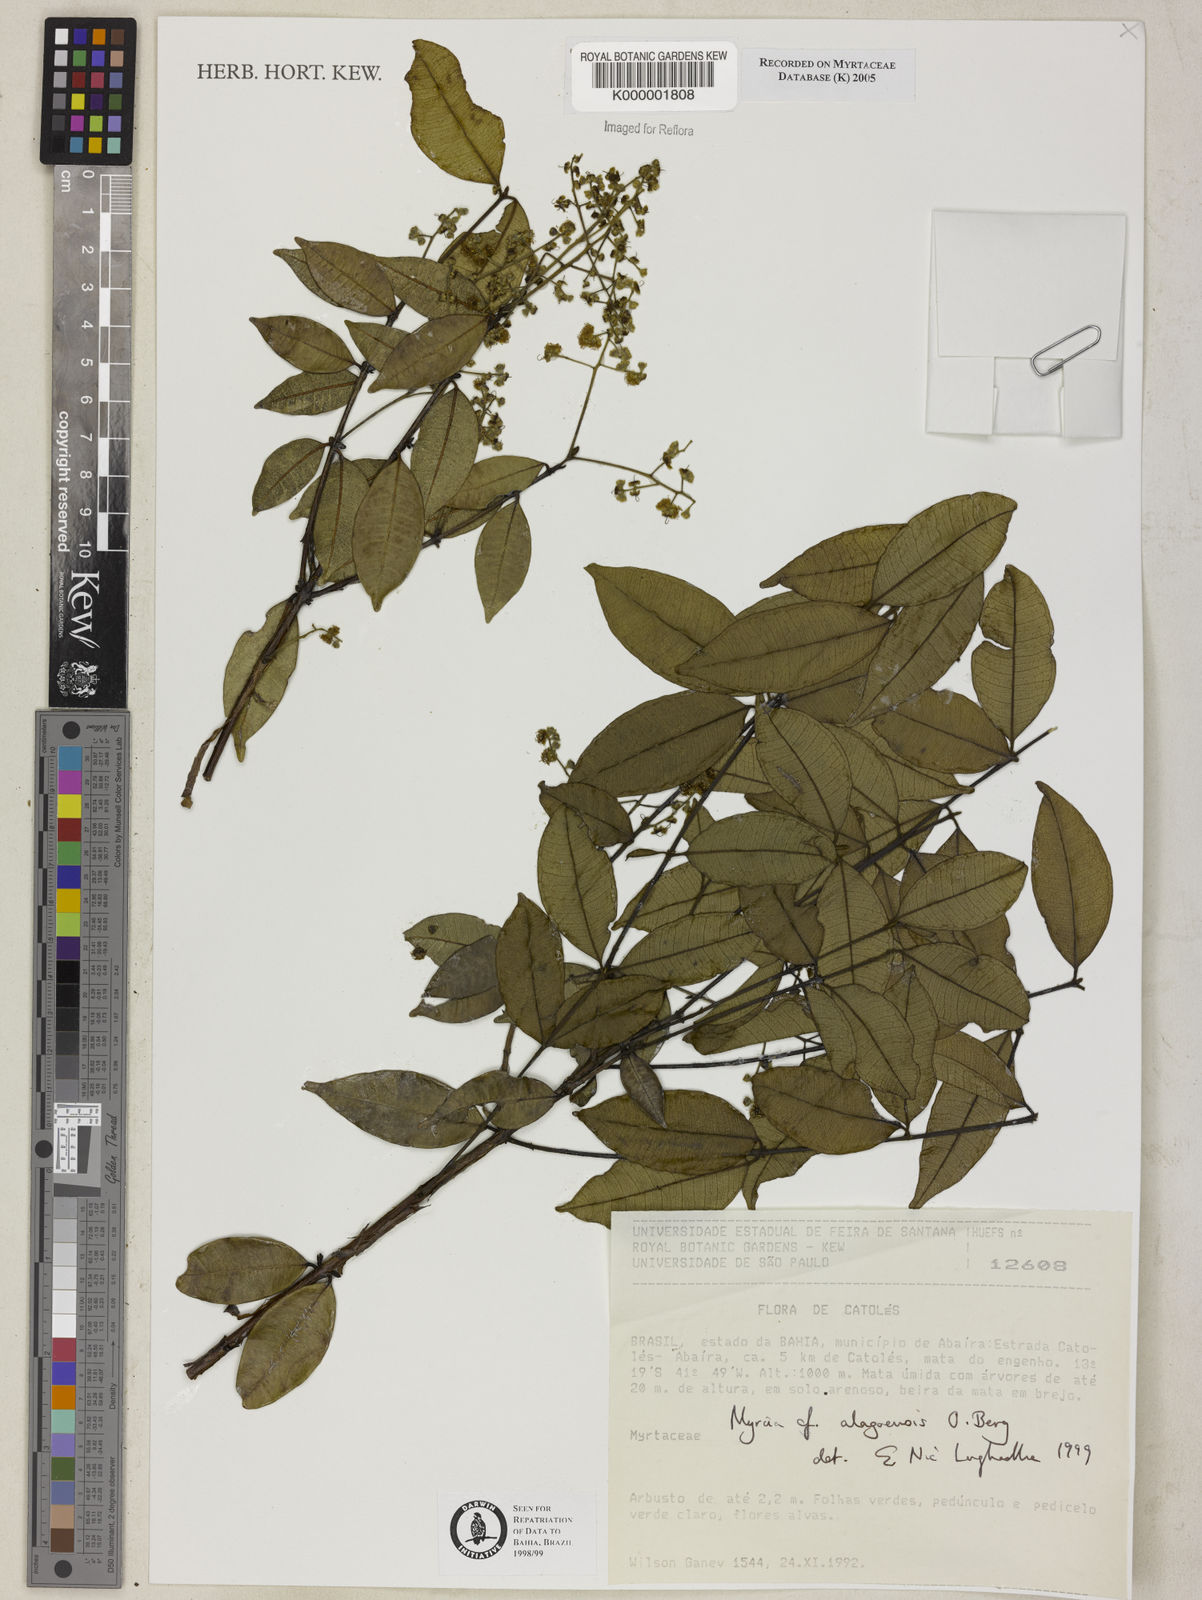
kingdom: Plantae
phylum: Tracheophyta
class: Magnoliopsida
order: Myrtales
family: Myrtaceae
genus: Myrcia
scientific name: Myrcia splendens
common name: Surinam cherry
